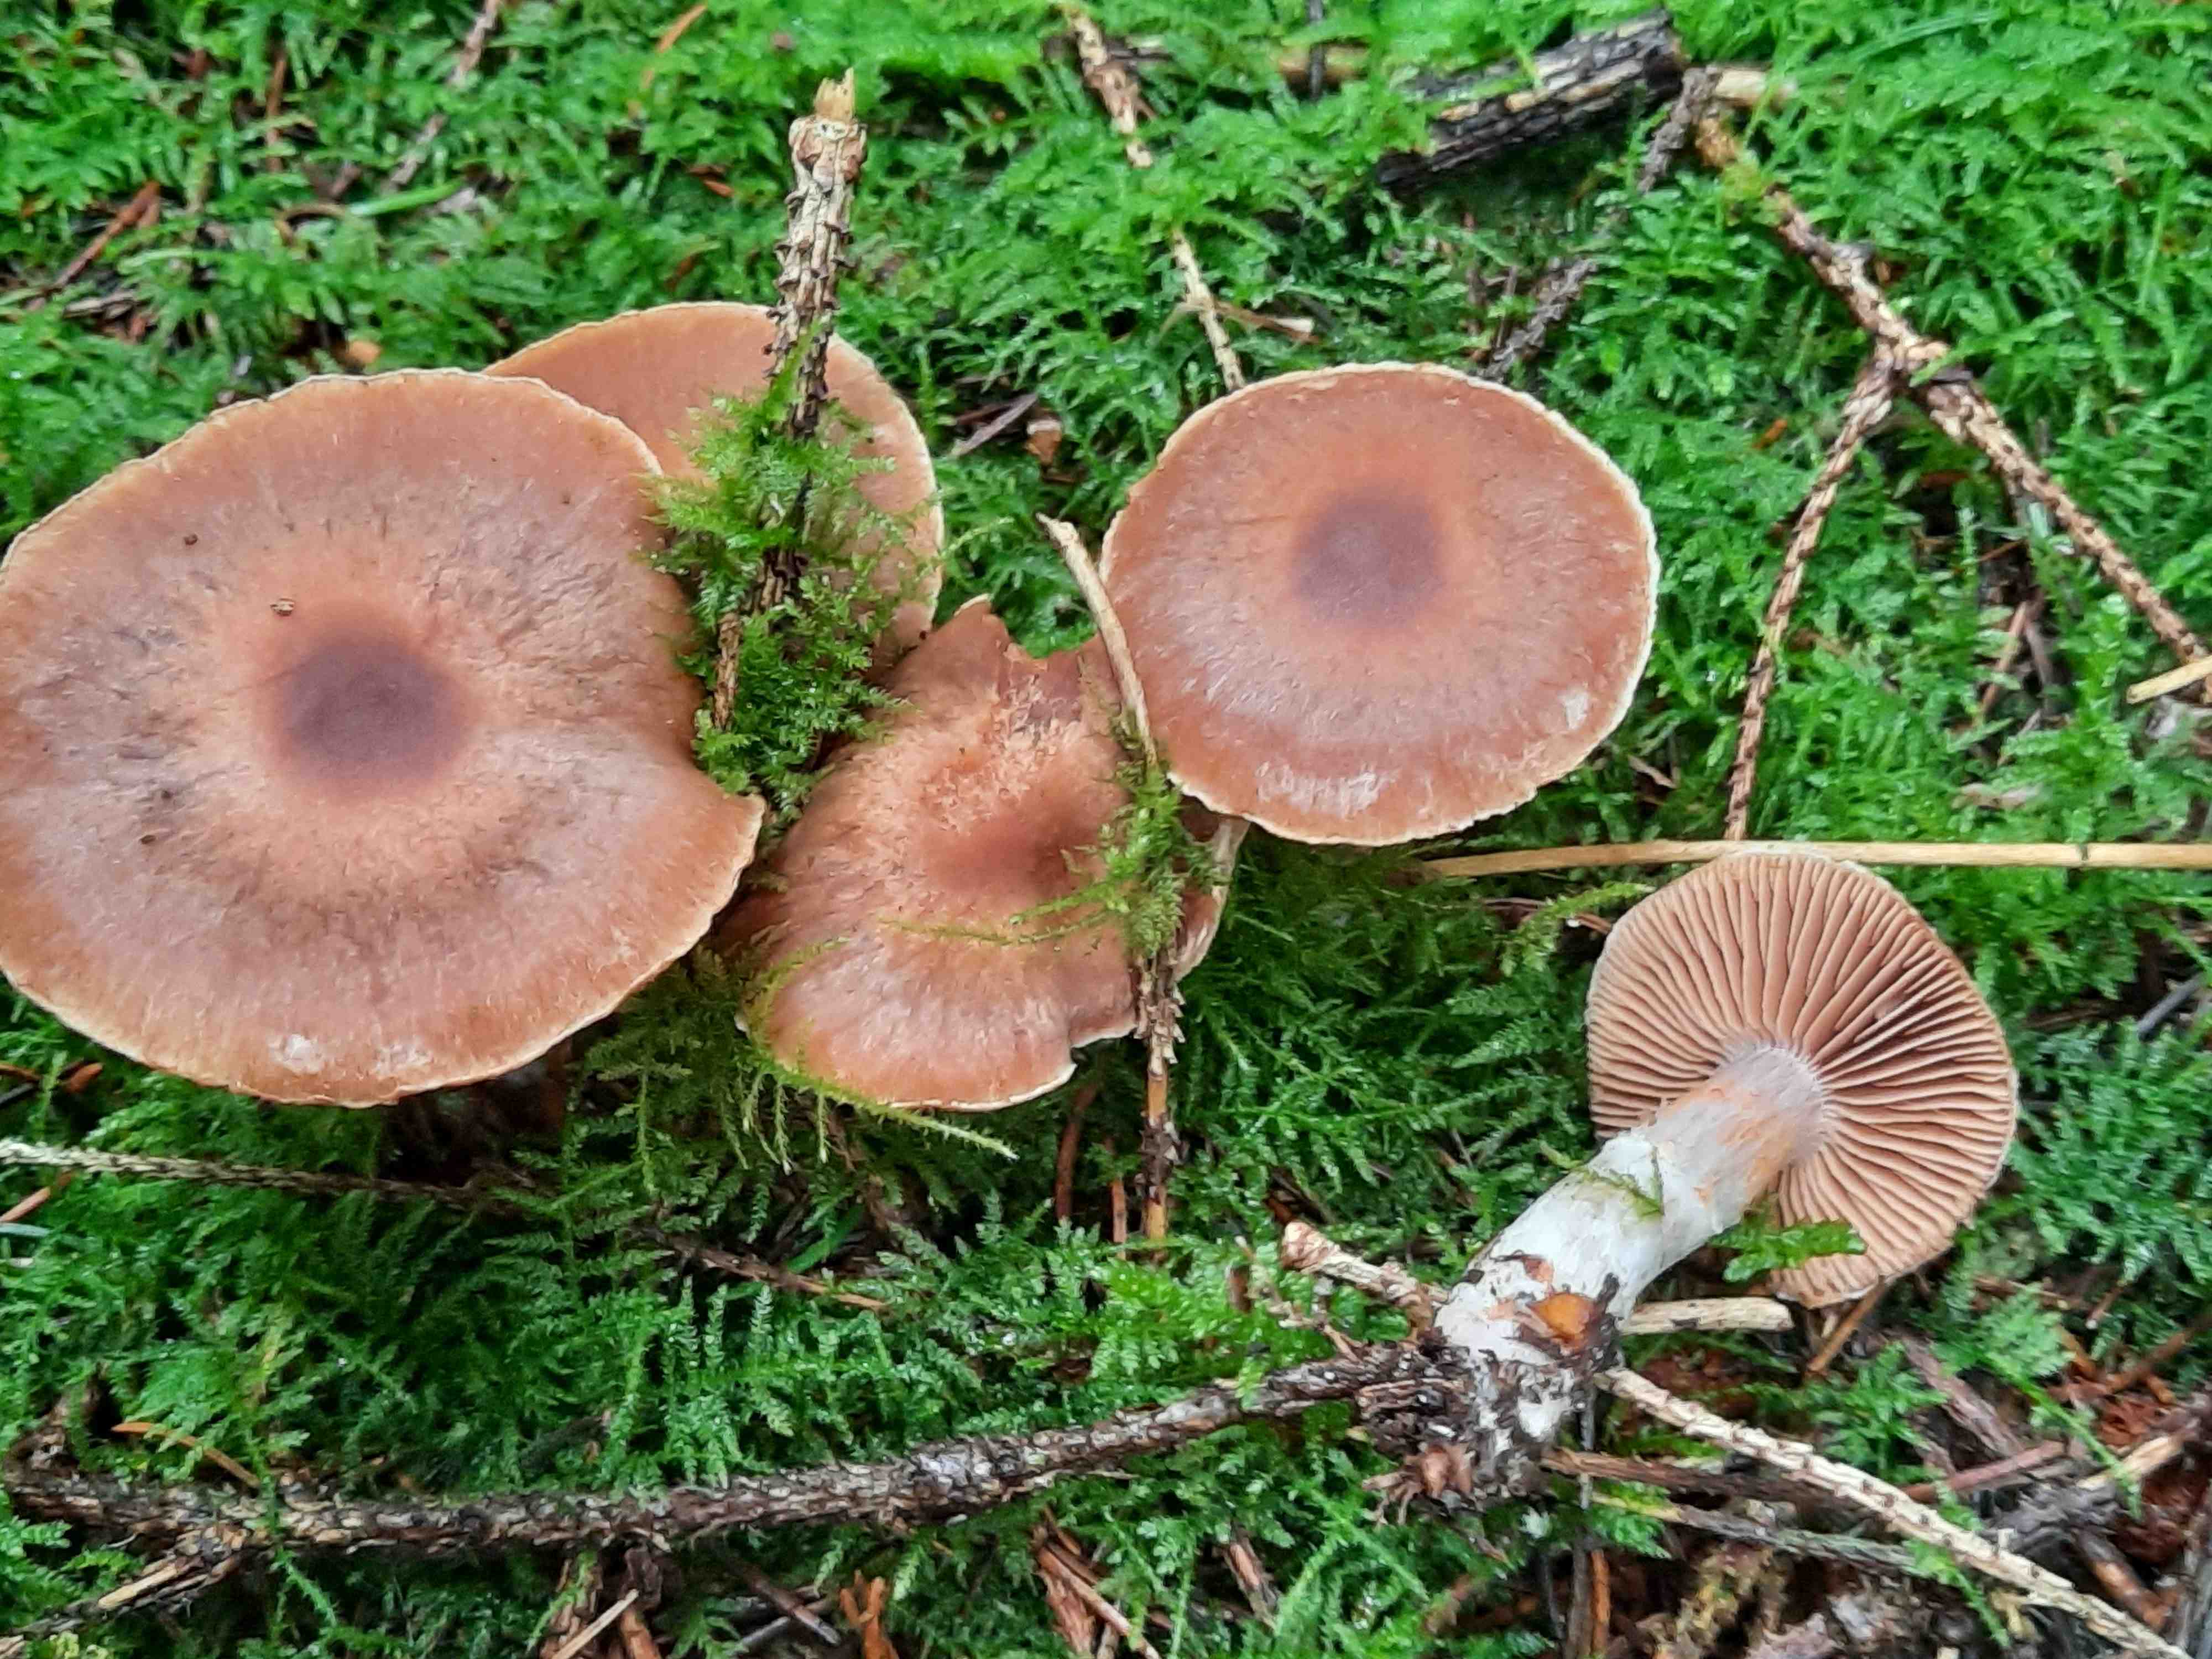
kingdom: Fungi
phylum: Basidiomycota
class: Agaricomycetes
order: Agaricales
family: Cortinariaceae
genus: Cortinarius
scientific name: Cortinarius
